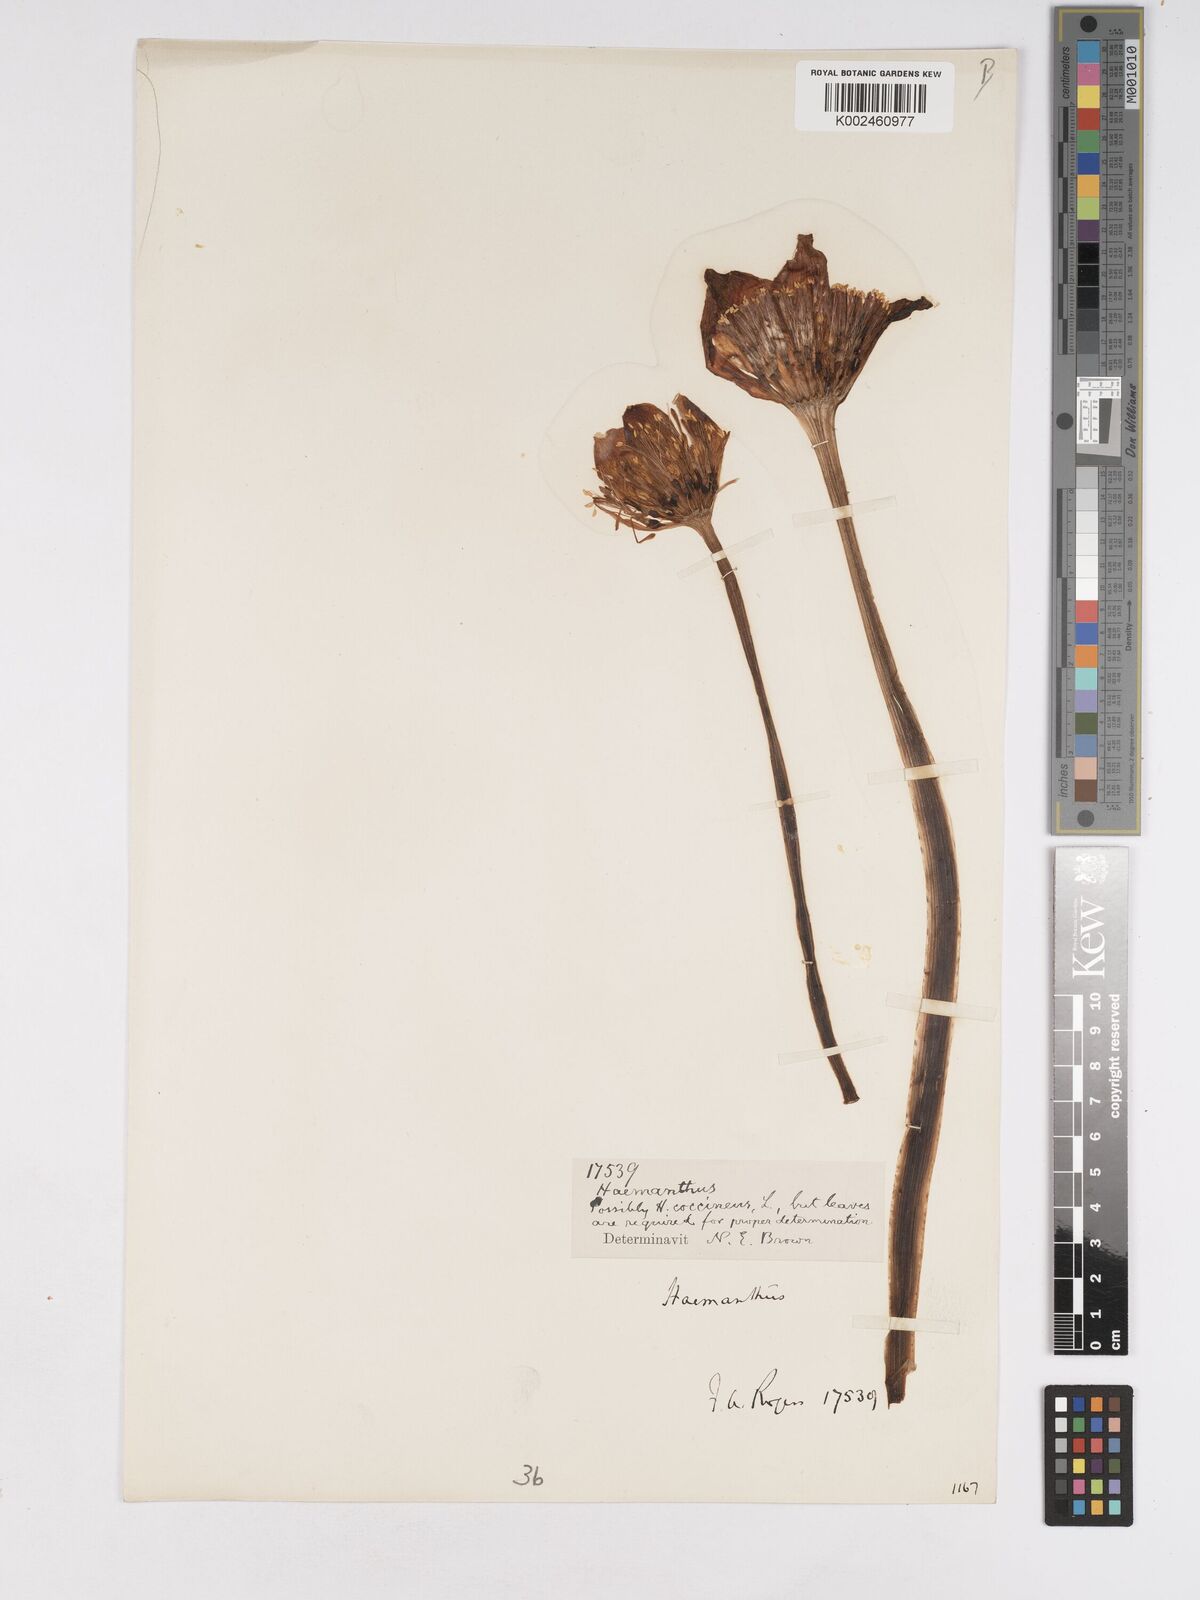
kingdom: Plantae
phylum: Tracheophyta
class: Liliopsida
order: Asparagales
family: Amaryllidaceae
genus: Haemanthus
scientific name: Haemanthus coccineus
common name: Cape-tulip
